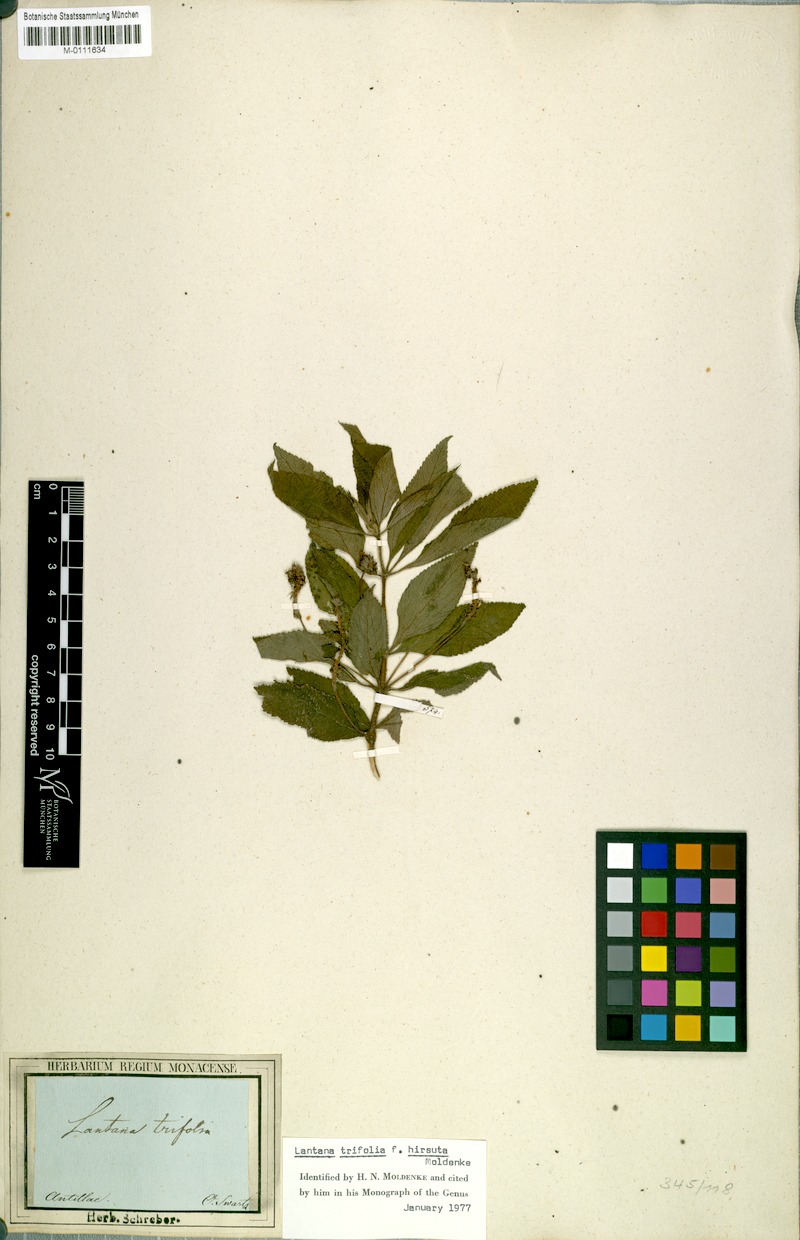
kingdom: Plantae
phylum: Tracheophyta
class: Magnoliopsida
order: Lamiales
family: Verbenaceae
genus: Lantana
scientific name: Lantana trifolia
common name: Sweet-sage
